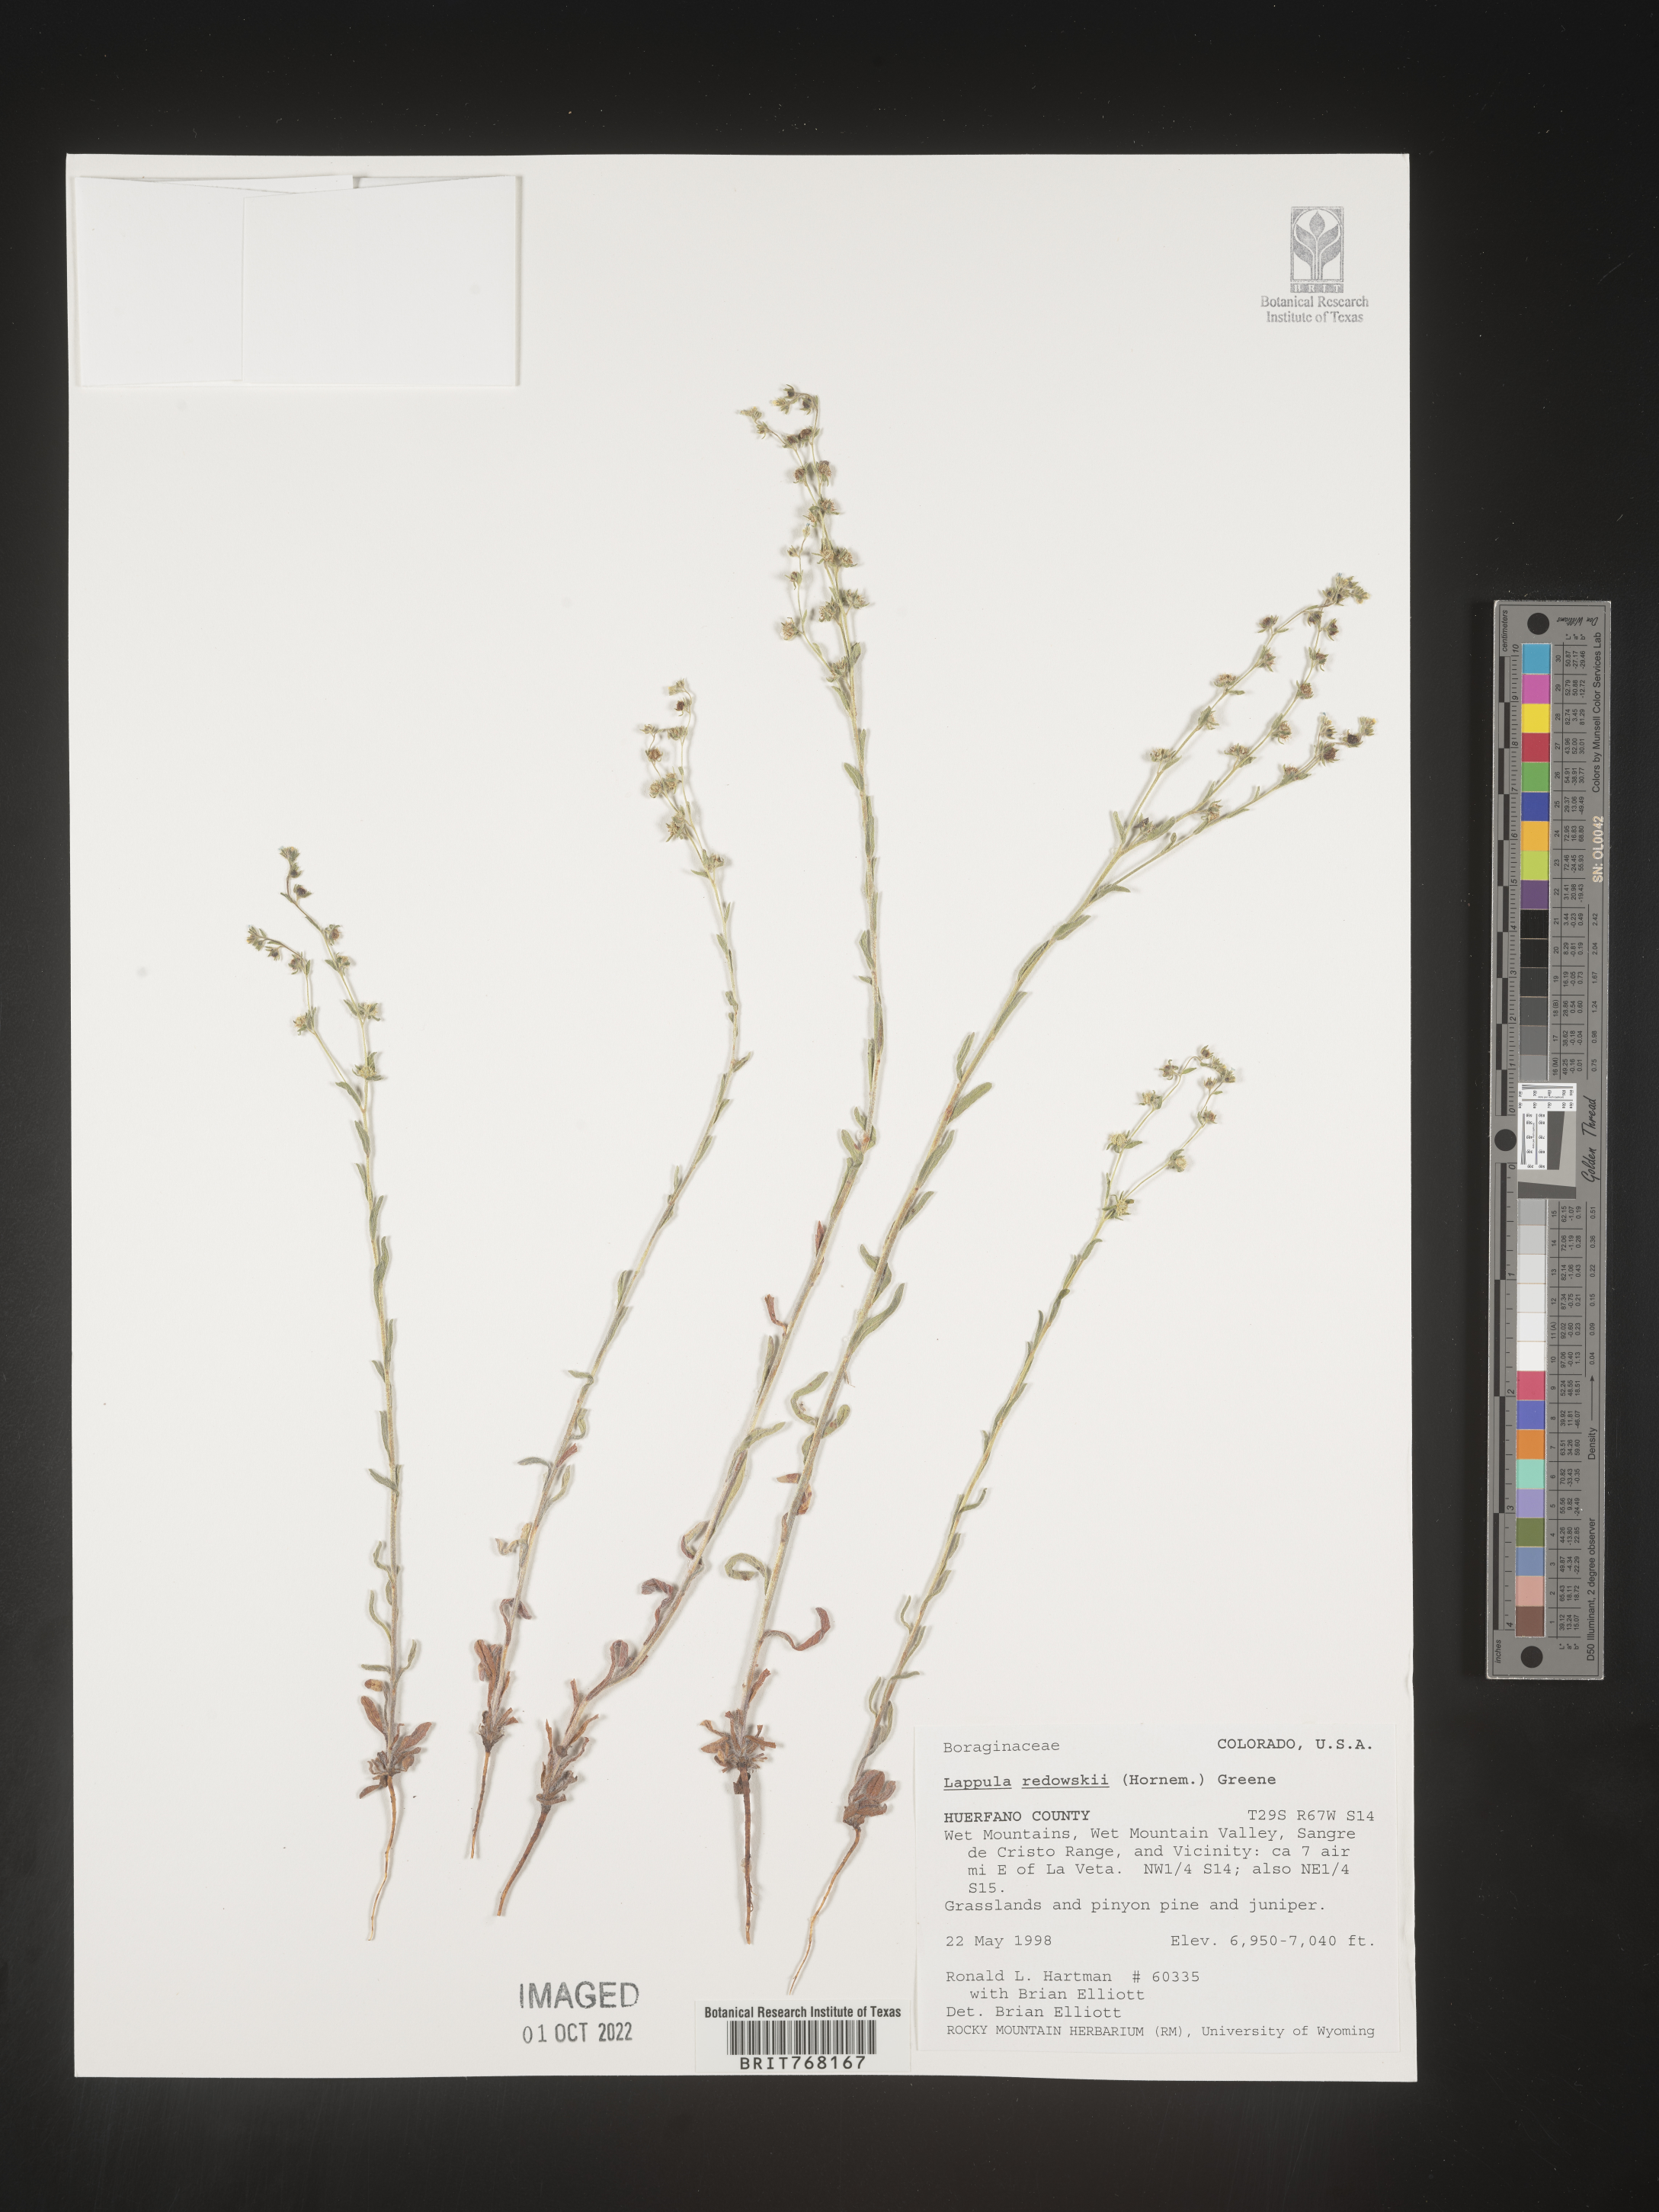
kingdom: Plantae
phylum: Tracheophyta
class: Magnoliopsida
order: Boraginales
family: Boraginaceae
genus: Lappula
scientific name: Lappula redowskii
